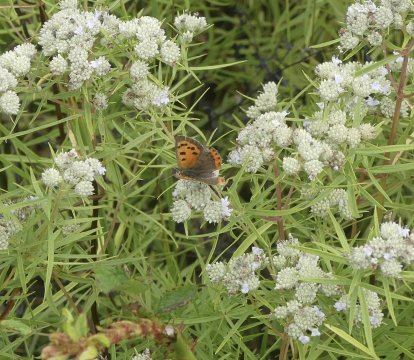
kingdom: Animalia
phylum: Arthropoda
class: Insecta
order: Lepidoptera
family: Lycaenidae
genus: Lycaena
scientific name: Lycaena phlaeas
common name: American Copper
